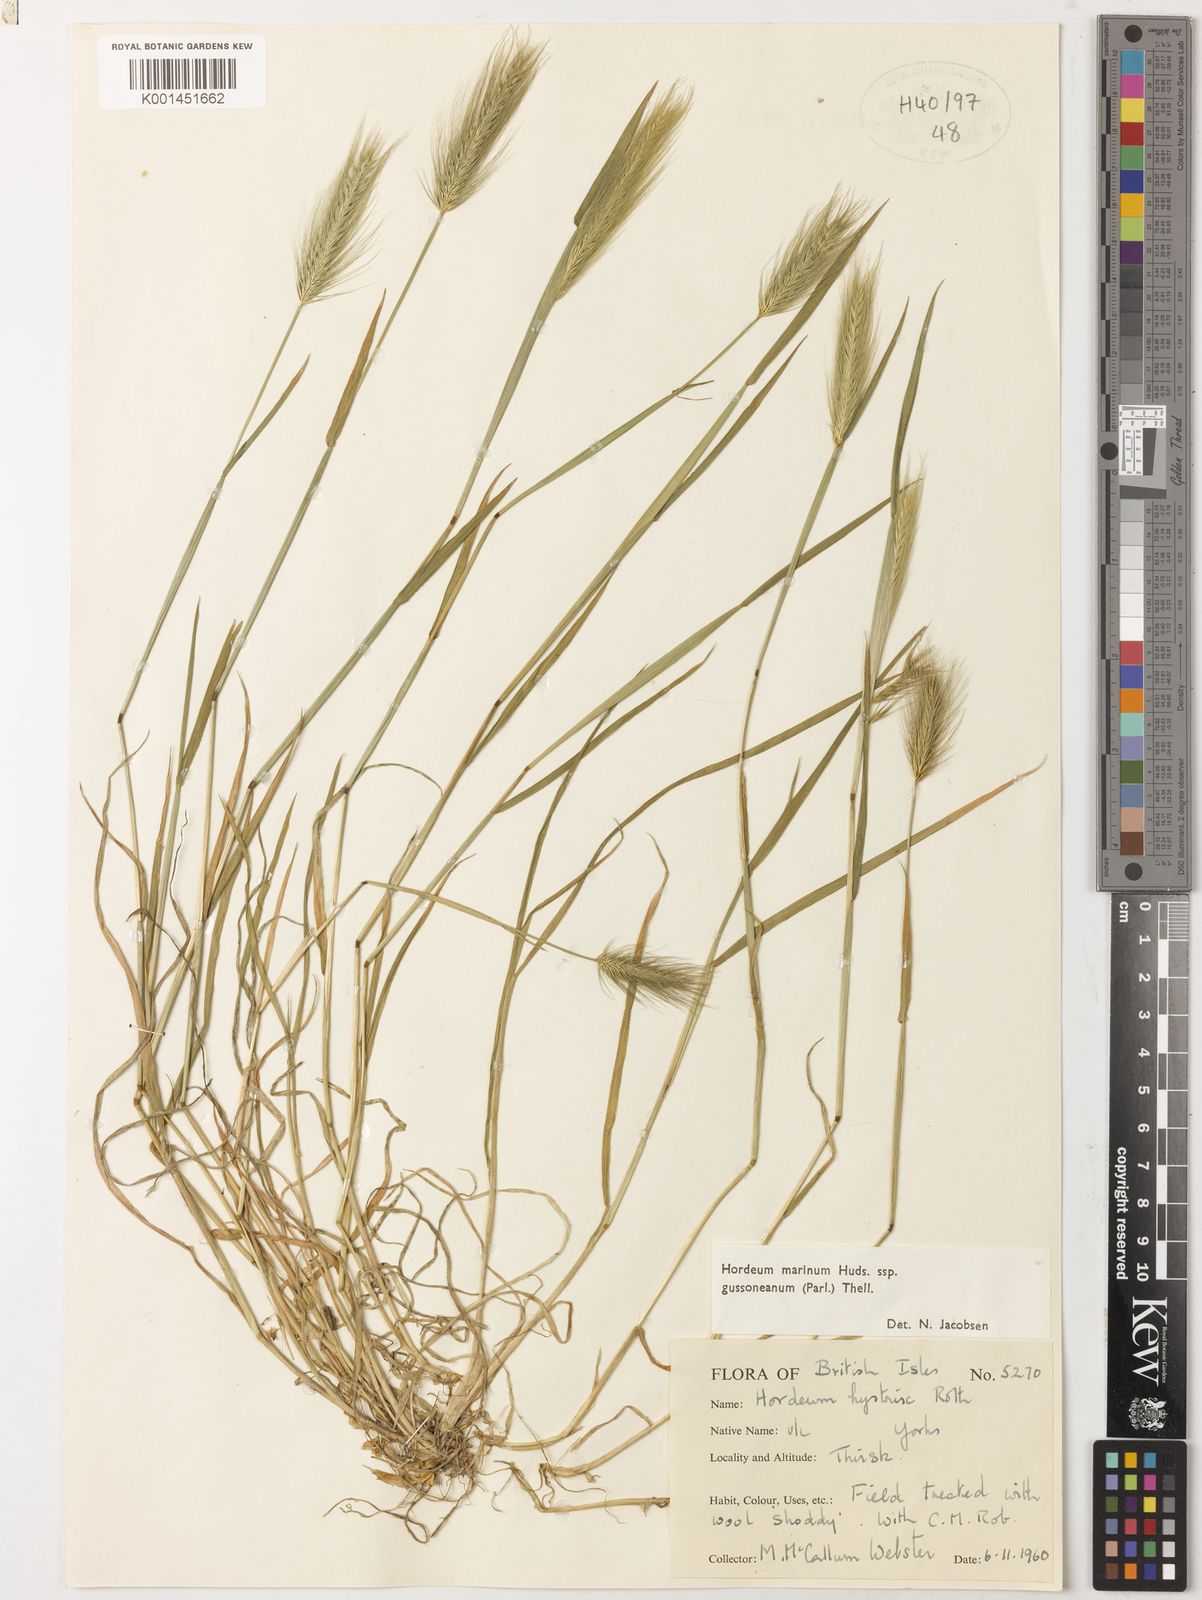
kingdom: Plantae
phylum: Tracheophyta
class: Liliopsida
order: Poales
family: Poaceae
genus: Hordeum
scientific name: Hordeum marinum
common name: Sea barley
